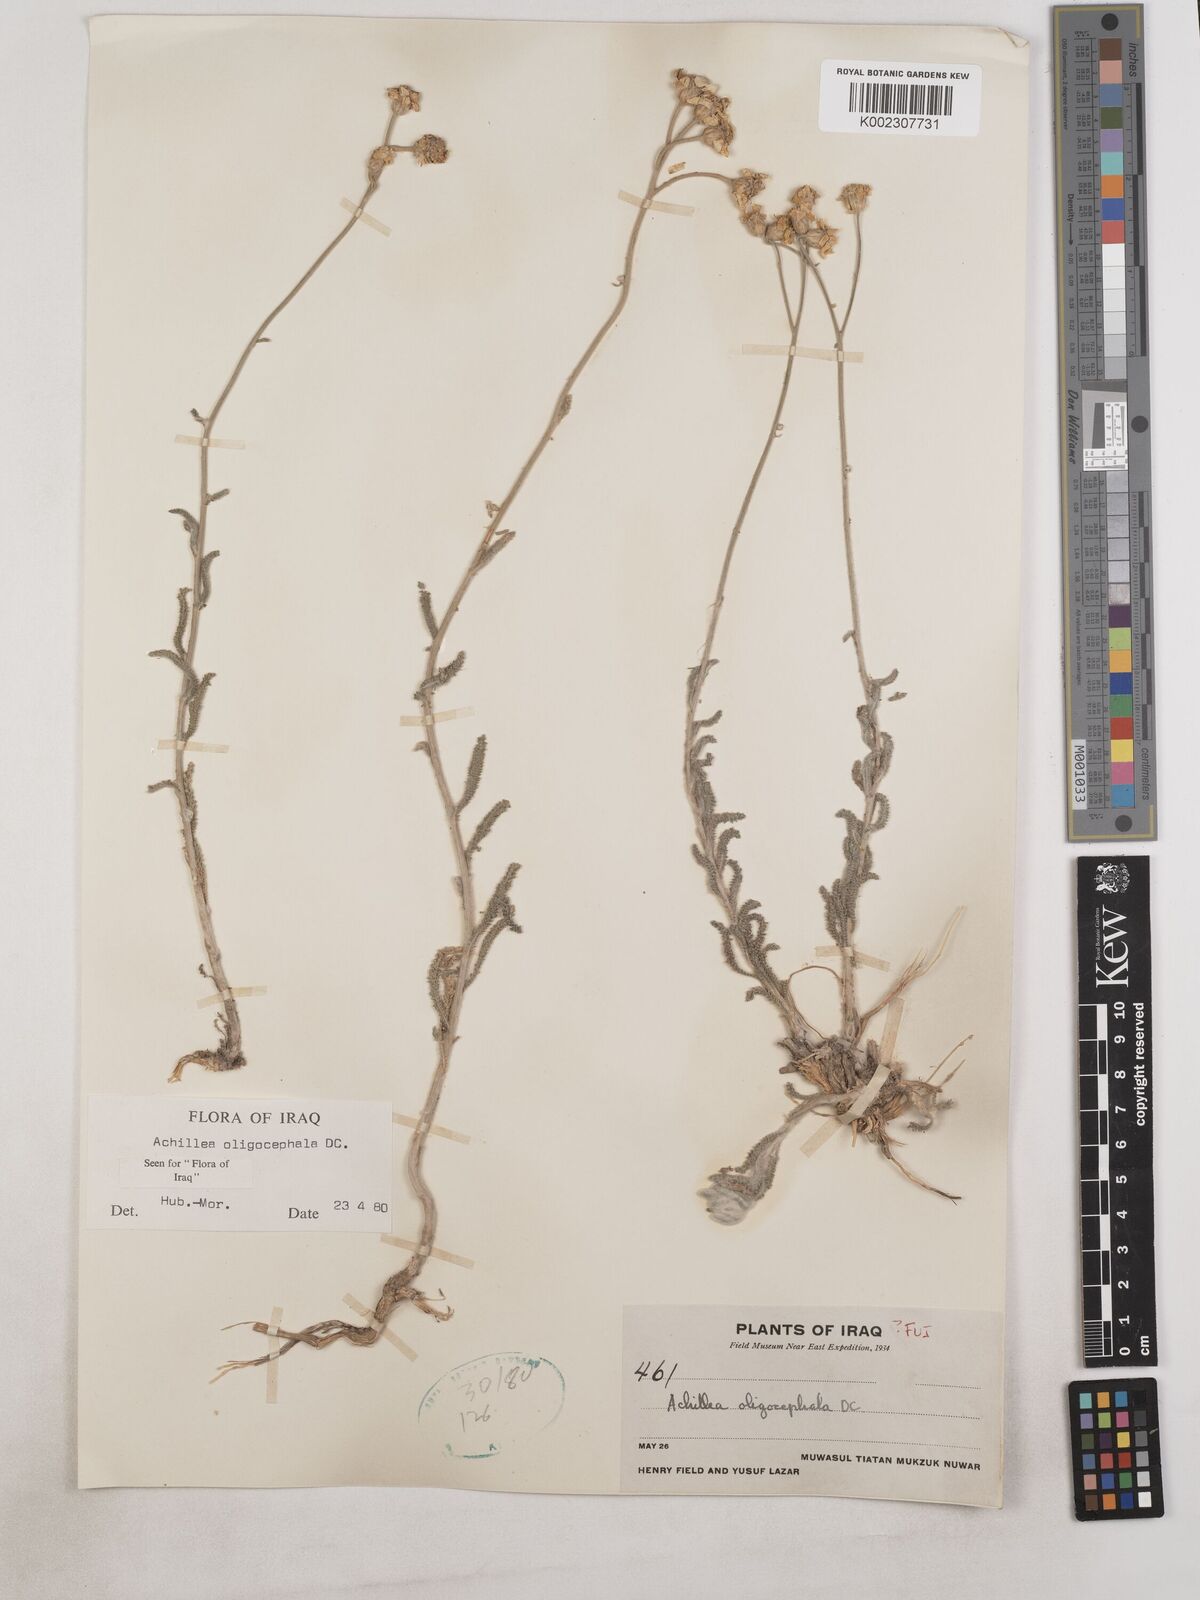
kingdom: Plantae
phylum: Tracheophyta
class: Magnoliopsida
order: Asterales
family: Asteraceae
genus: Achillea
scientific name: Achillea oligocephala
